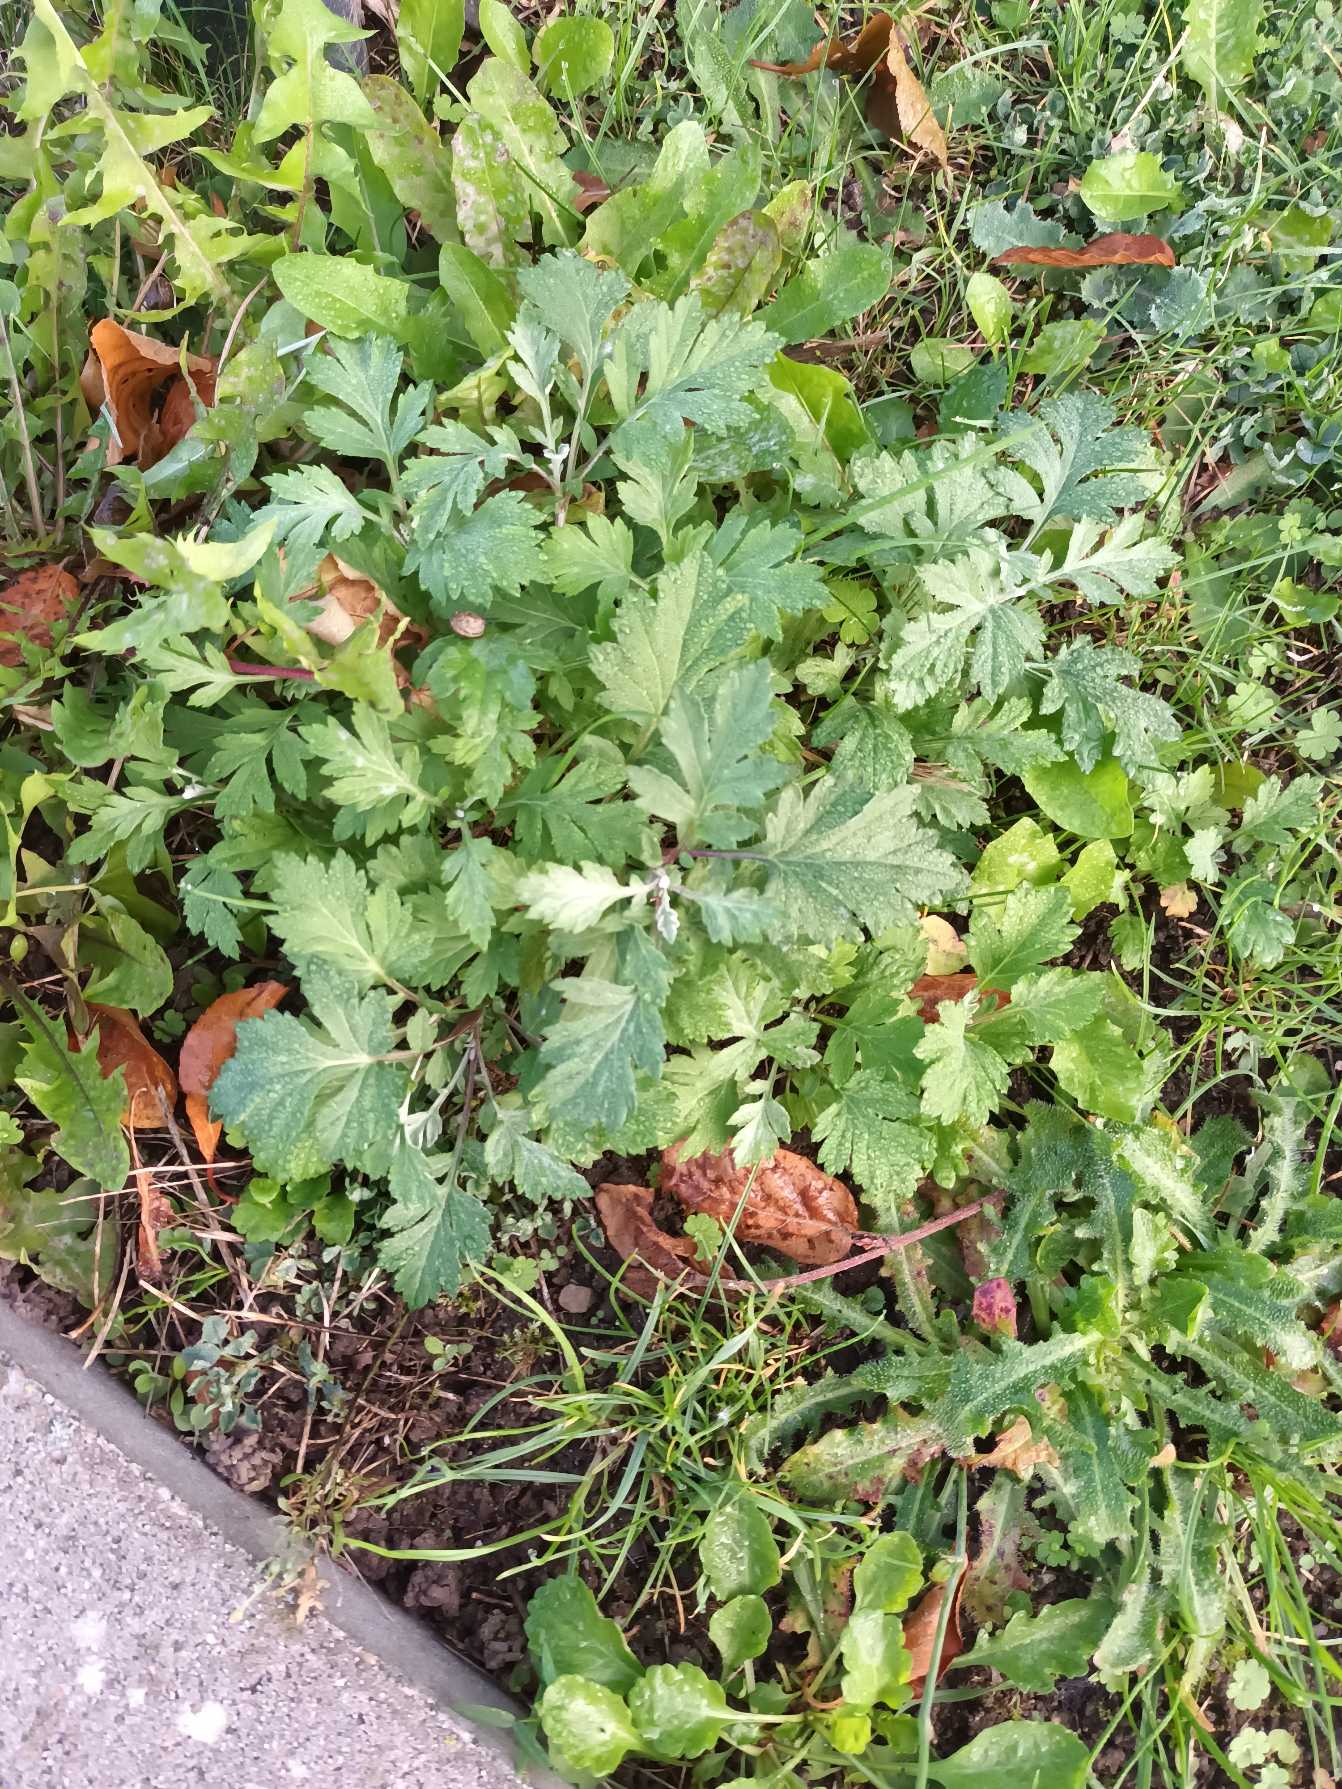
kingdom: Plantae
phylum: Tracheophyta
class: Magnoliopsida
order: Asterales
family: Asteraceae
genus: Artemisia
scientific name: Artemisia vulgaris
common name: Grå-bynke
